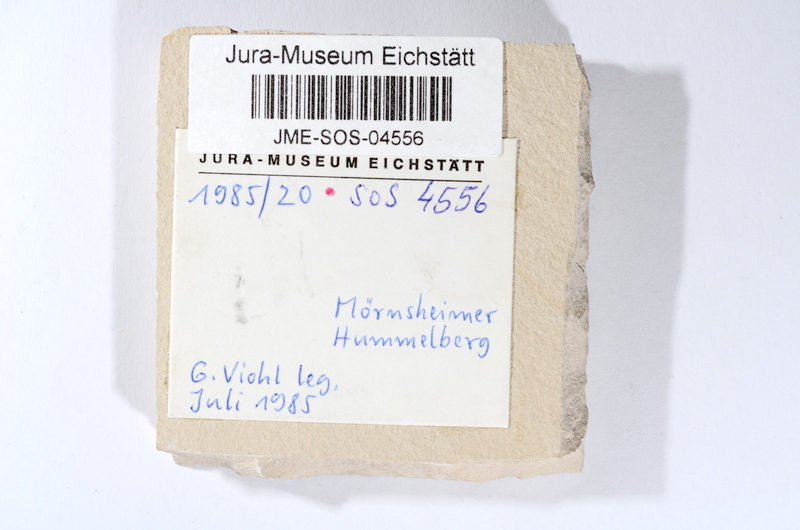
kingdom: Animalia
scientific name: Animalia
